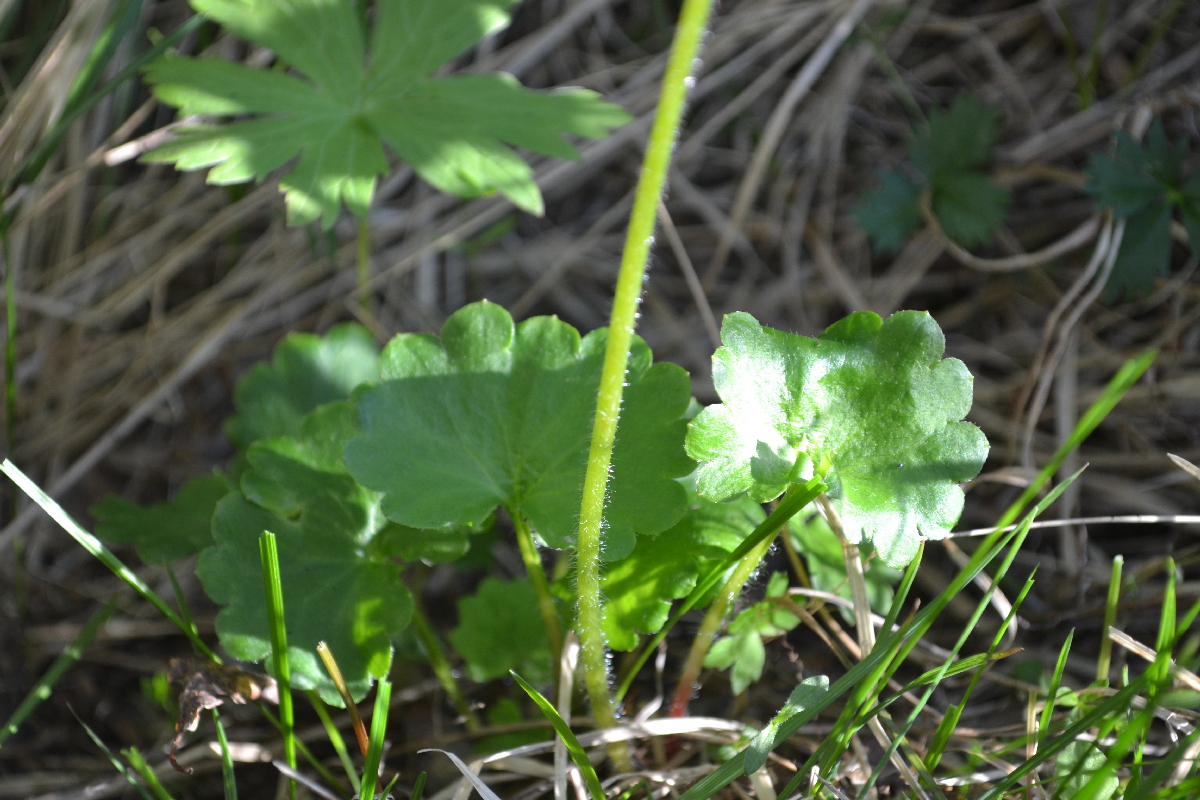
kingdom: Plantae
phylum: Tracheophyta
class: Magnoliopsida
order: Saxifragales
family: Saxifragaceae
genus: Micranthes
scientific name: Micranthes nelsoniana
